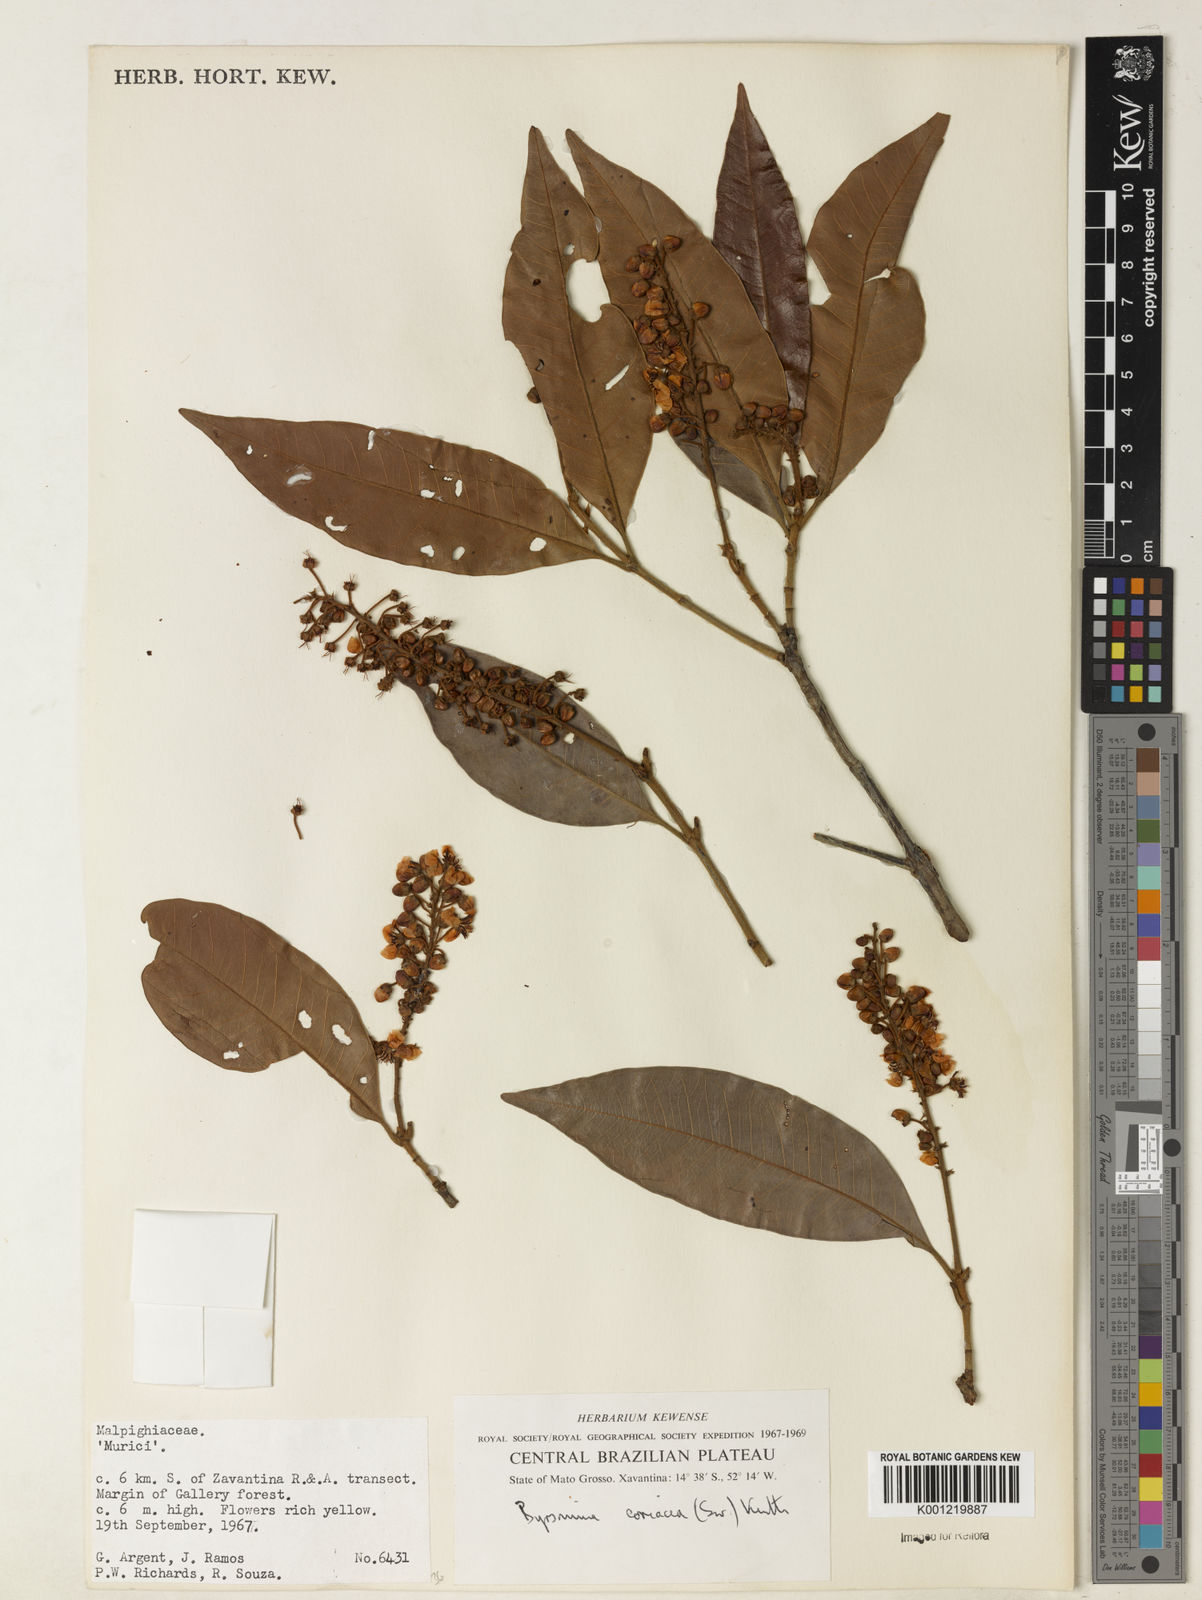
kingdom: Plantae
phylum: Tracheophyta
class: Magnoliopsida
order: Malpighiales
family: Malpighiaceae
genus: Byrsonima
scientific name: Byrsonima
